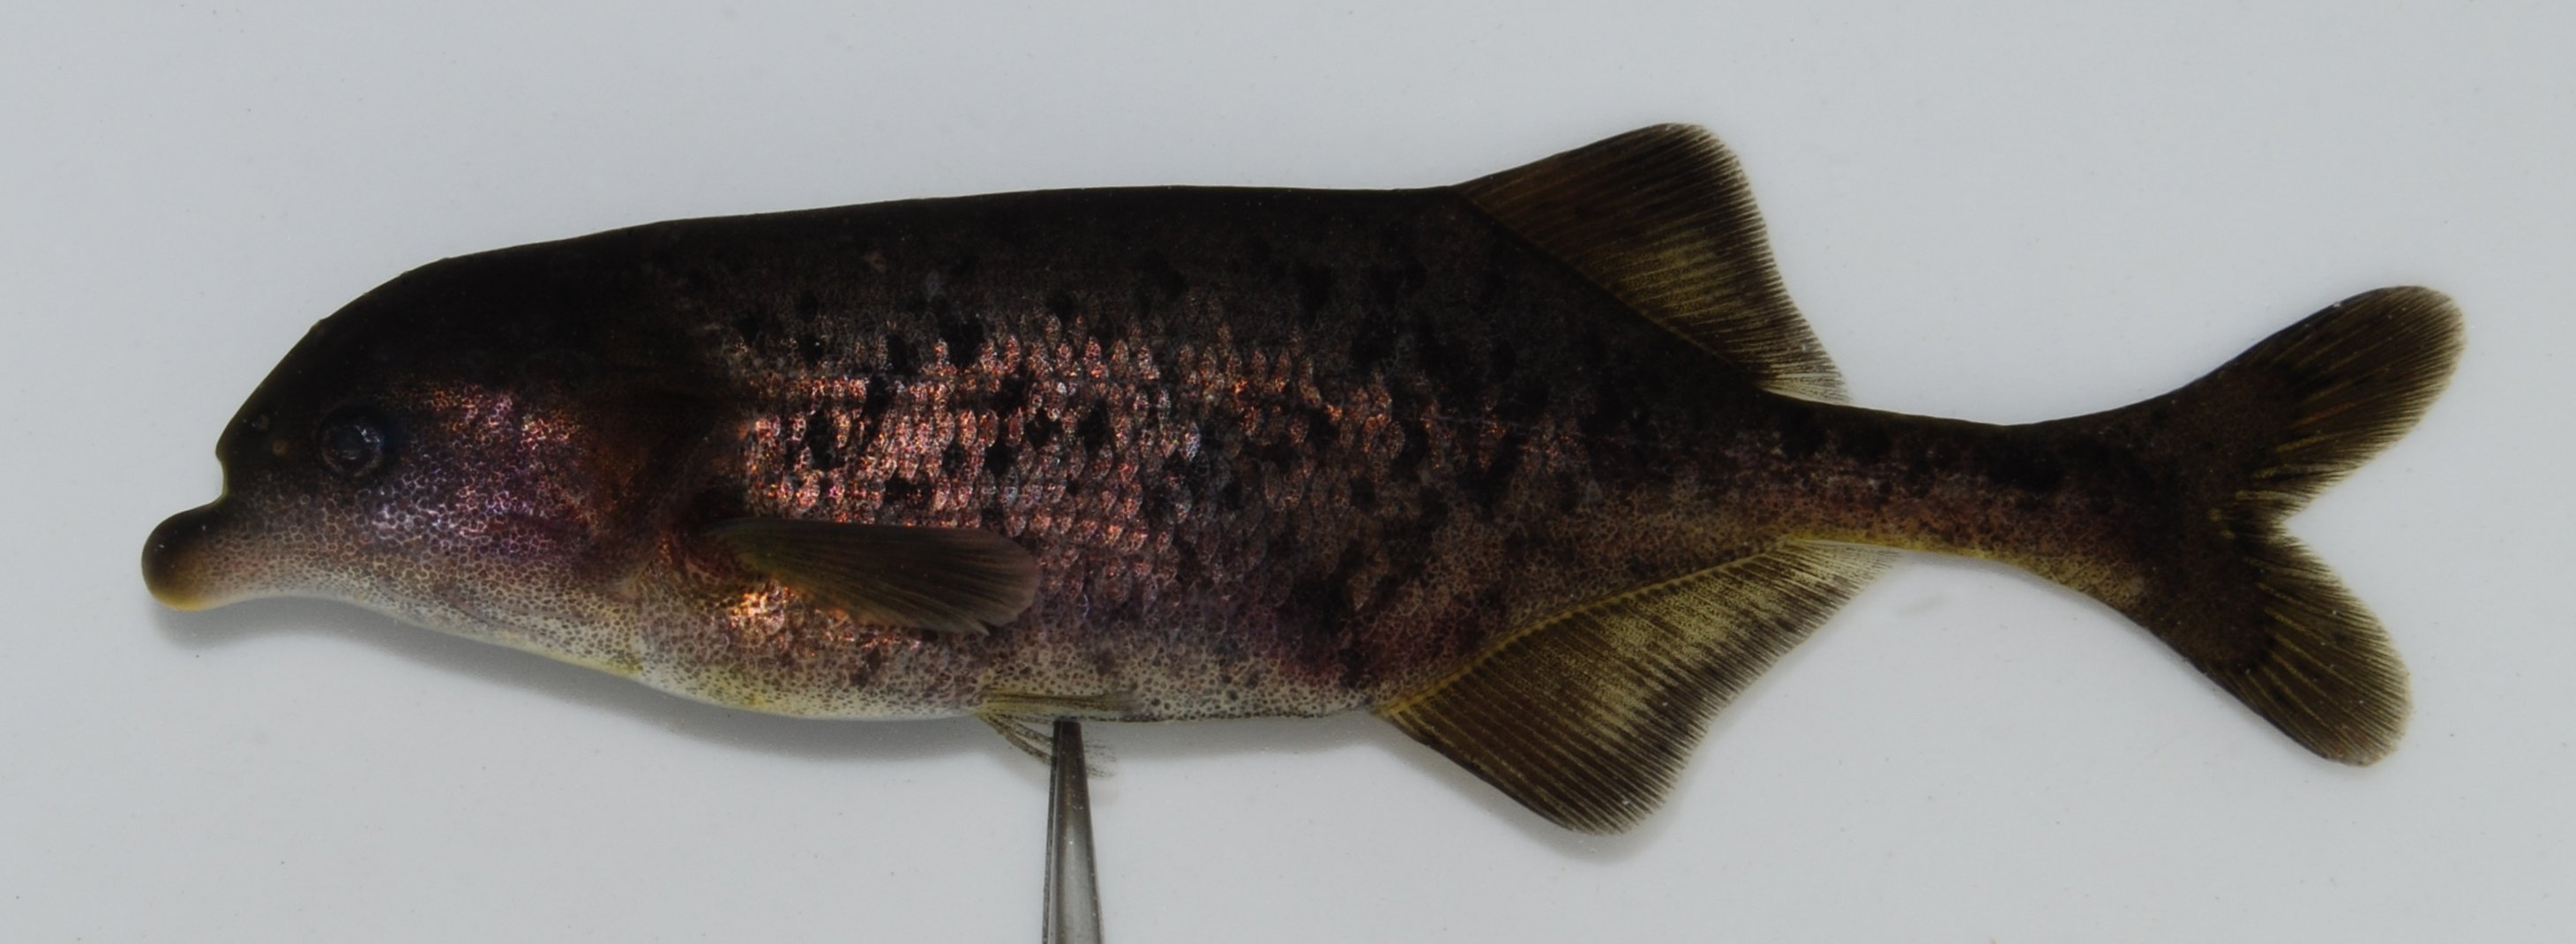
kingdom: Animalia
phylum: Chordata
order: Osteoglossiformes
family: Mormyridae
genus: Marcusenius
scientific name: Marcusenius macrolepidotus
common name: Bulldog
